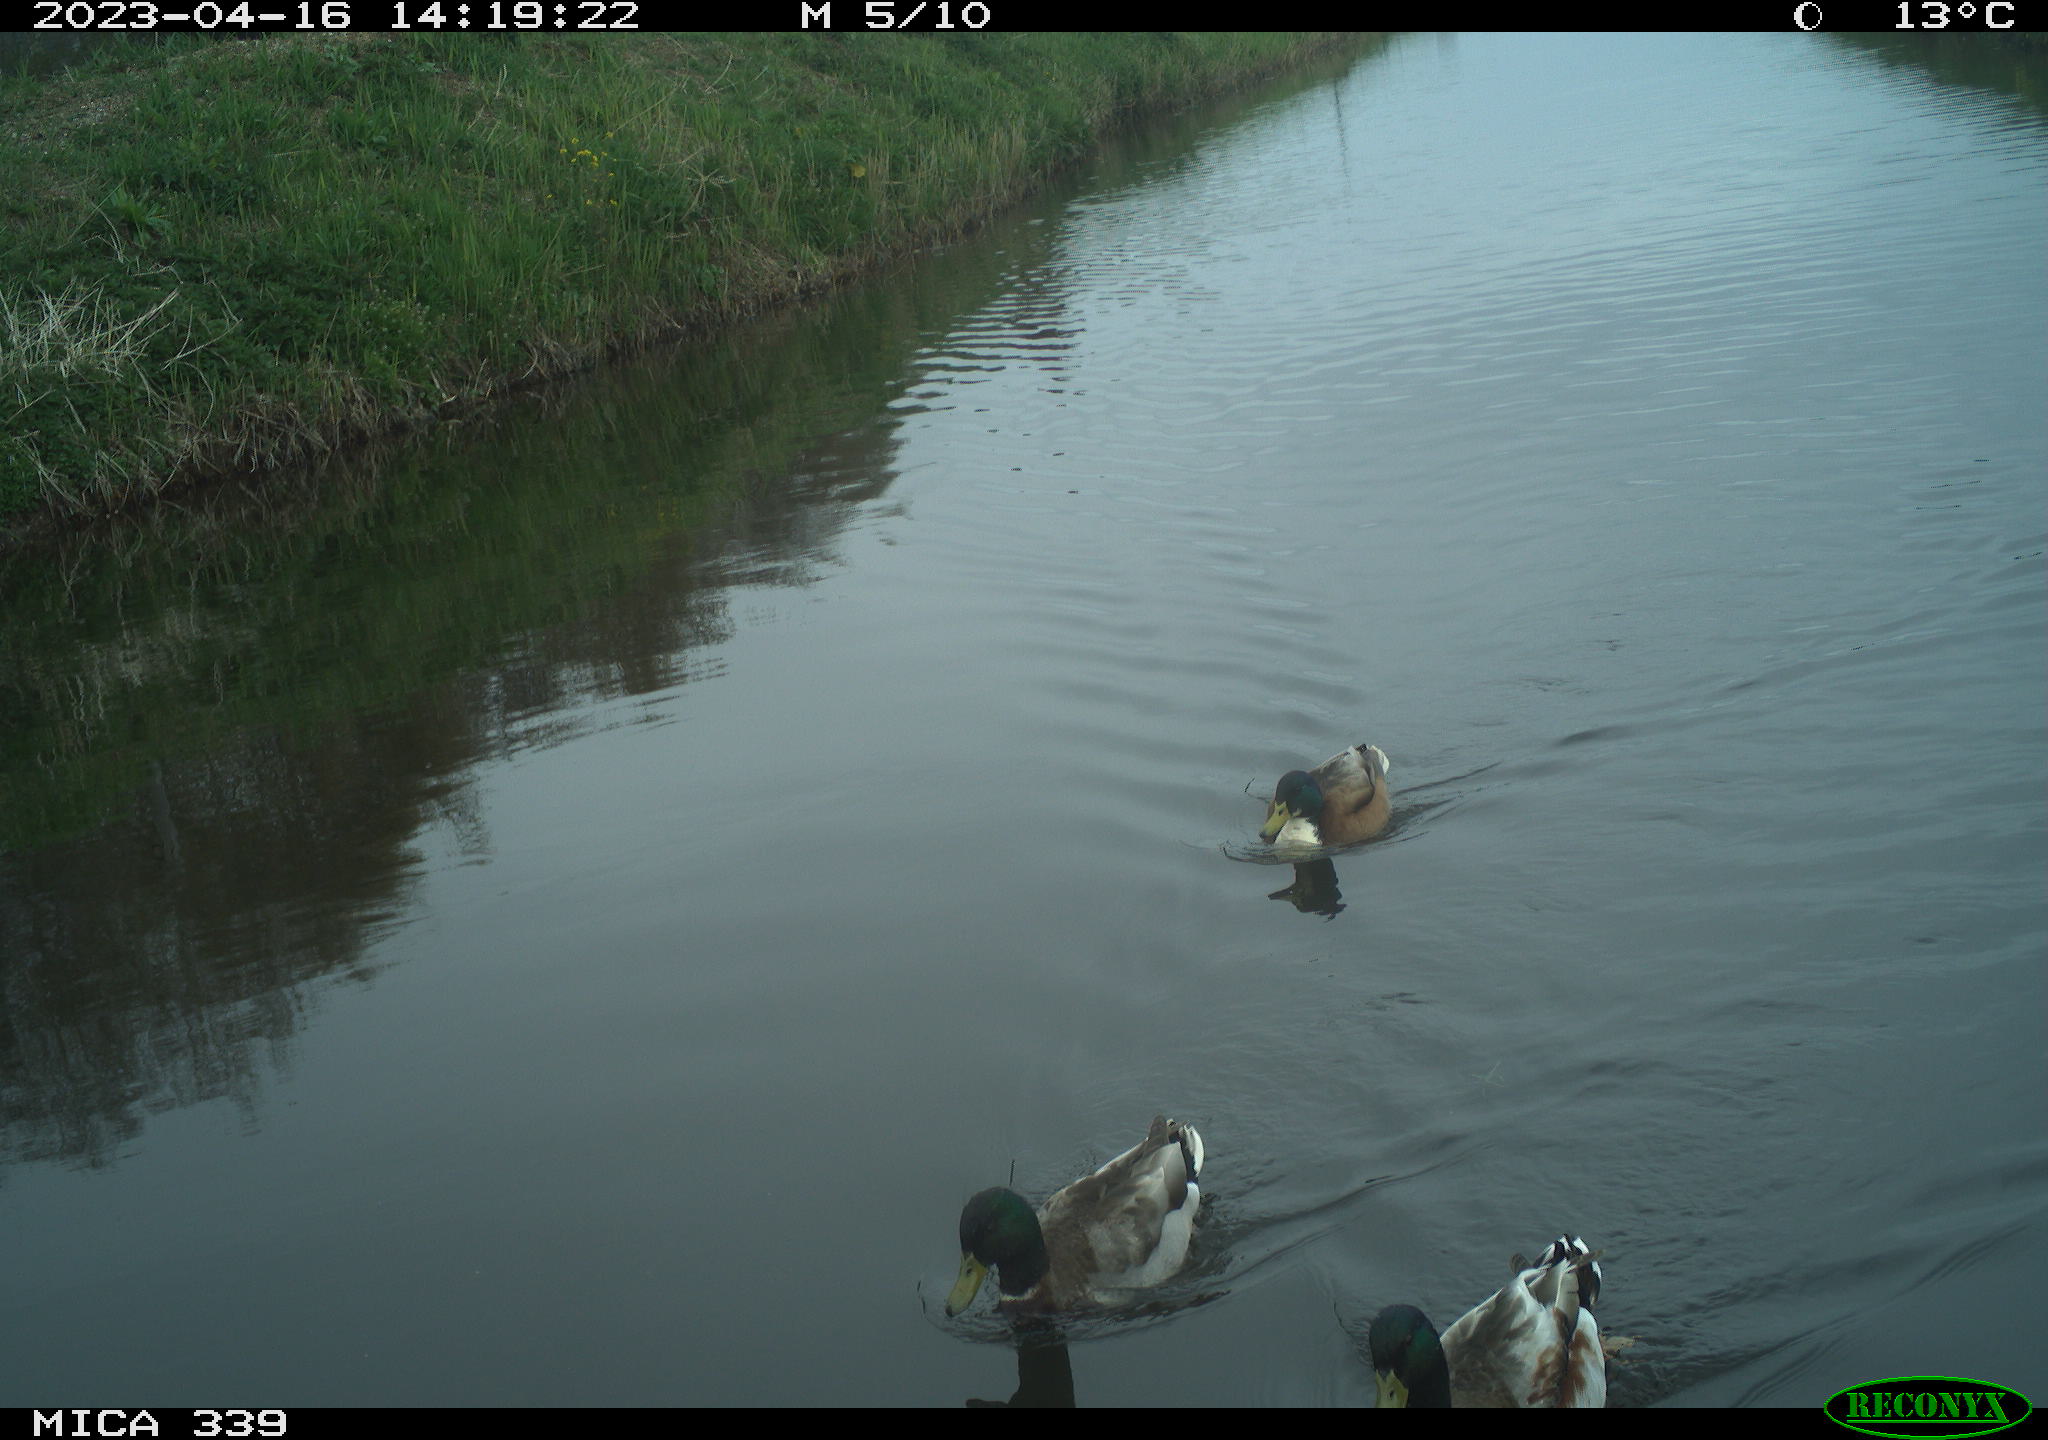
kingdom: Animalia
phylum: Chordata
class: Aves
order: Anseriformes
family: Anatidae
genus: Anas
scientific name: Anas platyrhynchos
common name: Mallard
